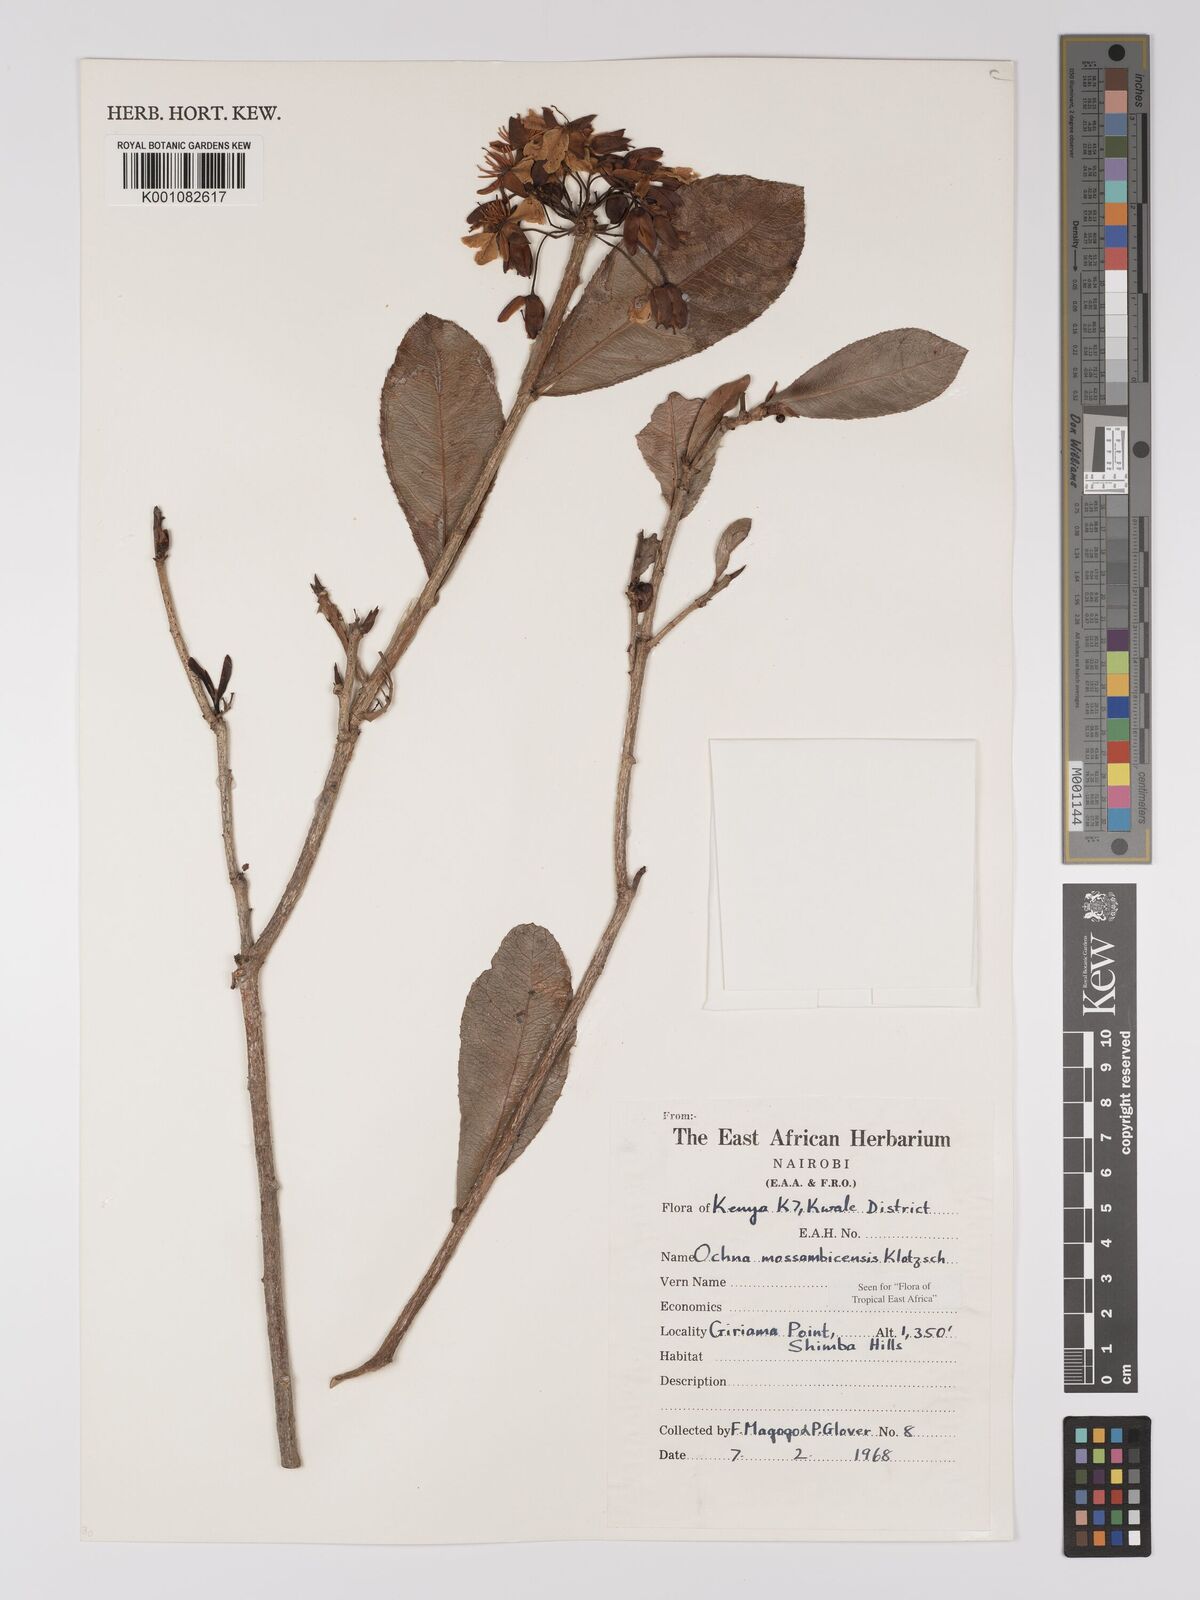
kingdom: Plantae
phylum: Tracheophyta
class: Magnoliopsida
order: Malpighiales
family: Ochnaceae
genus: Ochna
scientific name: Ochna atropurpurea
